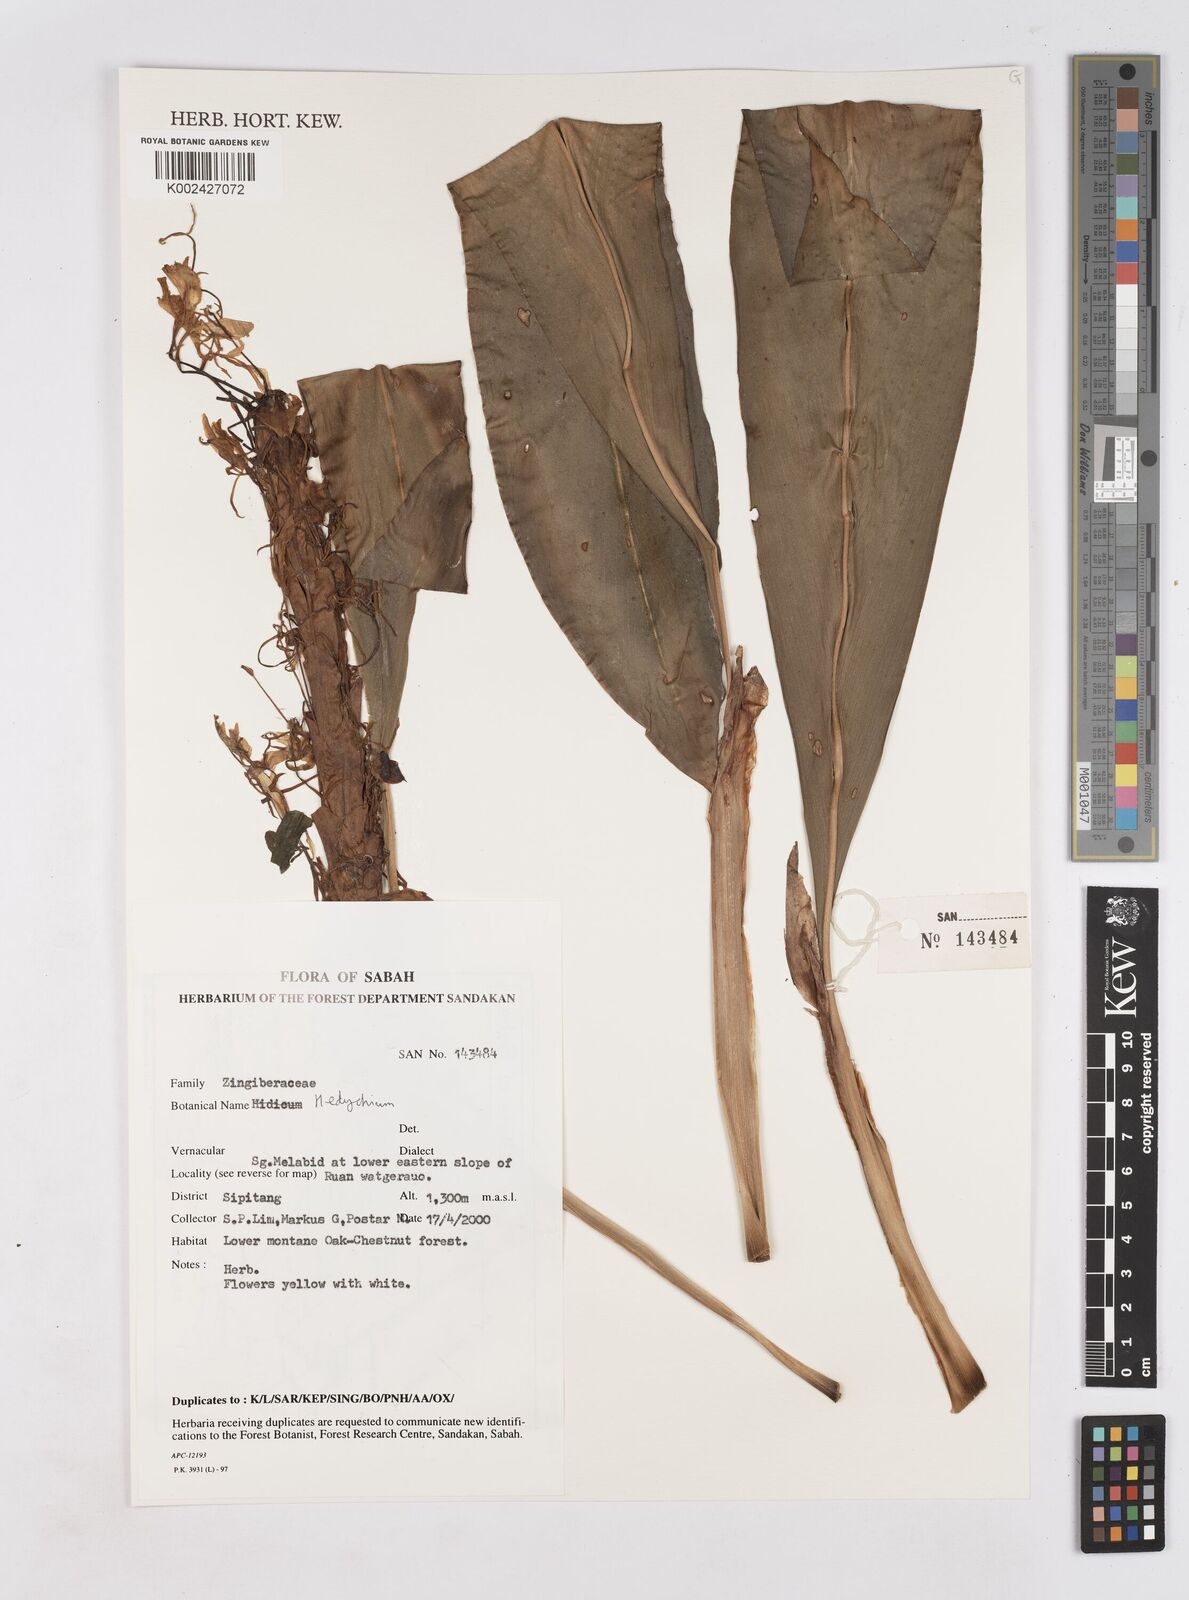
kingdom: Plantae
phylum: Tracheophyta
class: Liliopsida
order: Zingiberales
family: Zingiberaceae
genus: Hedychium
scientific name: Hedychium
